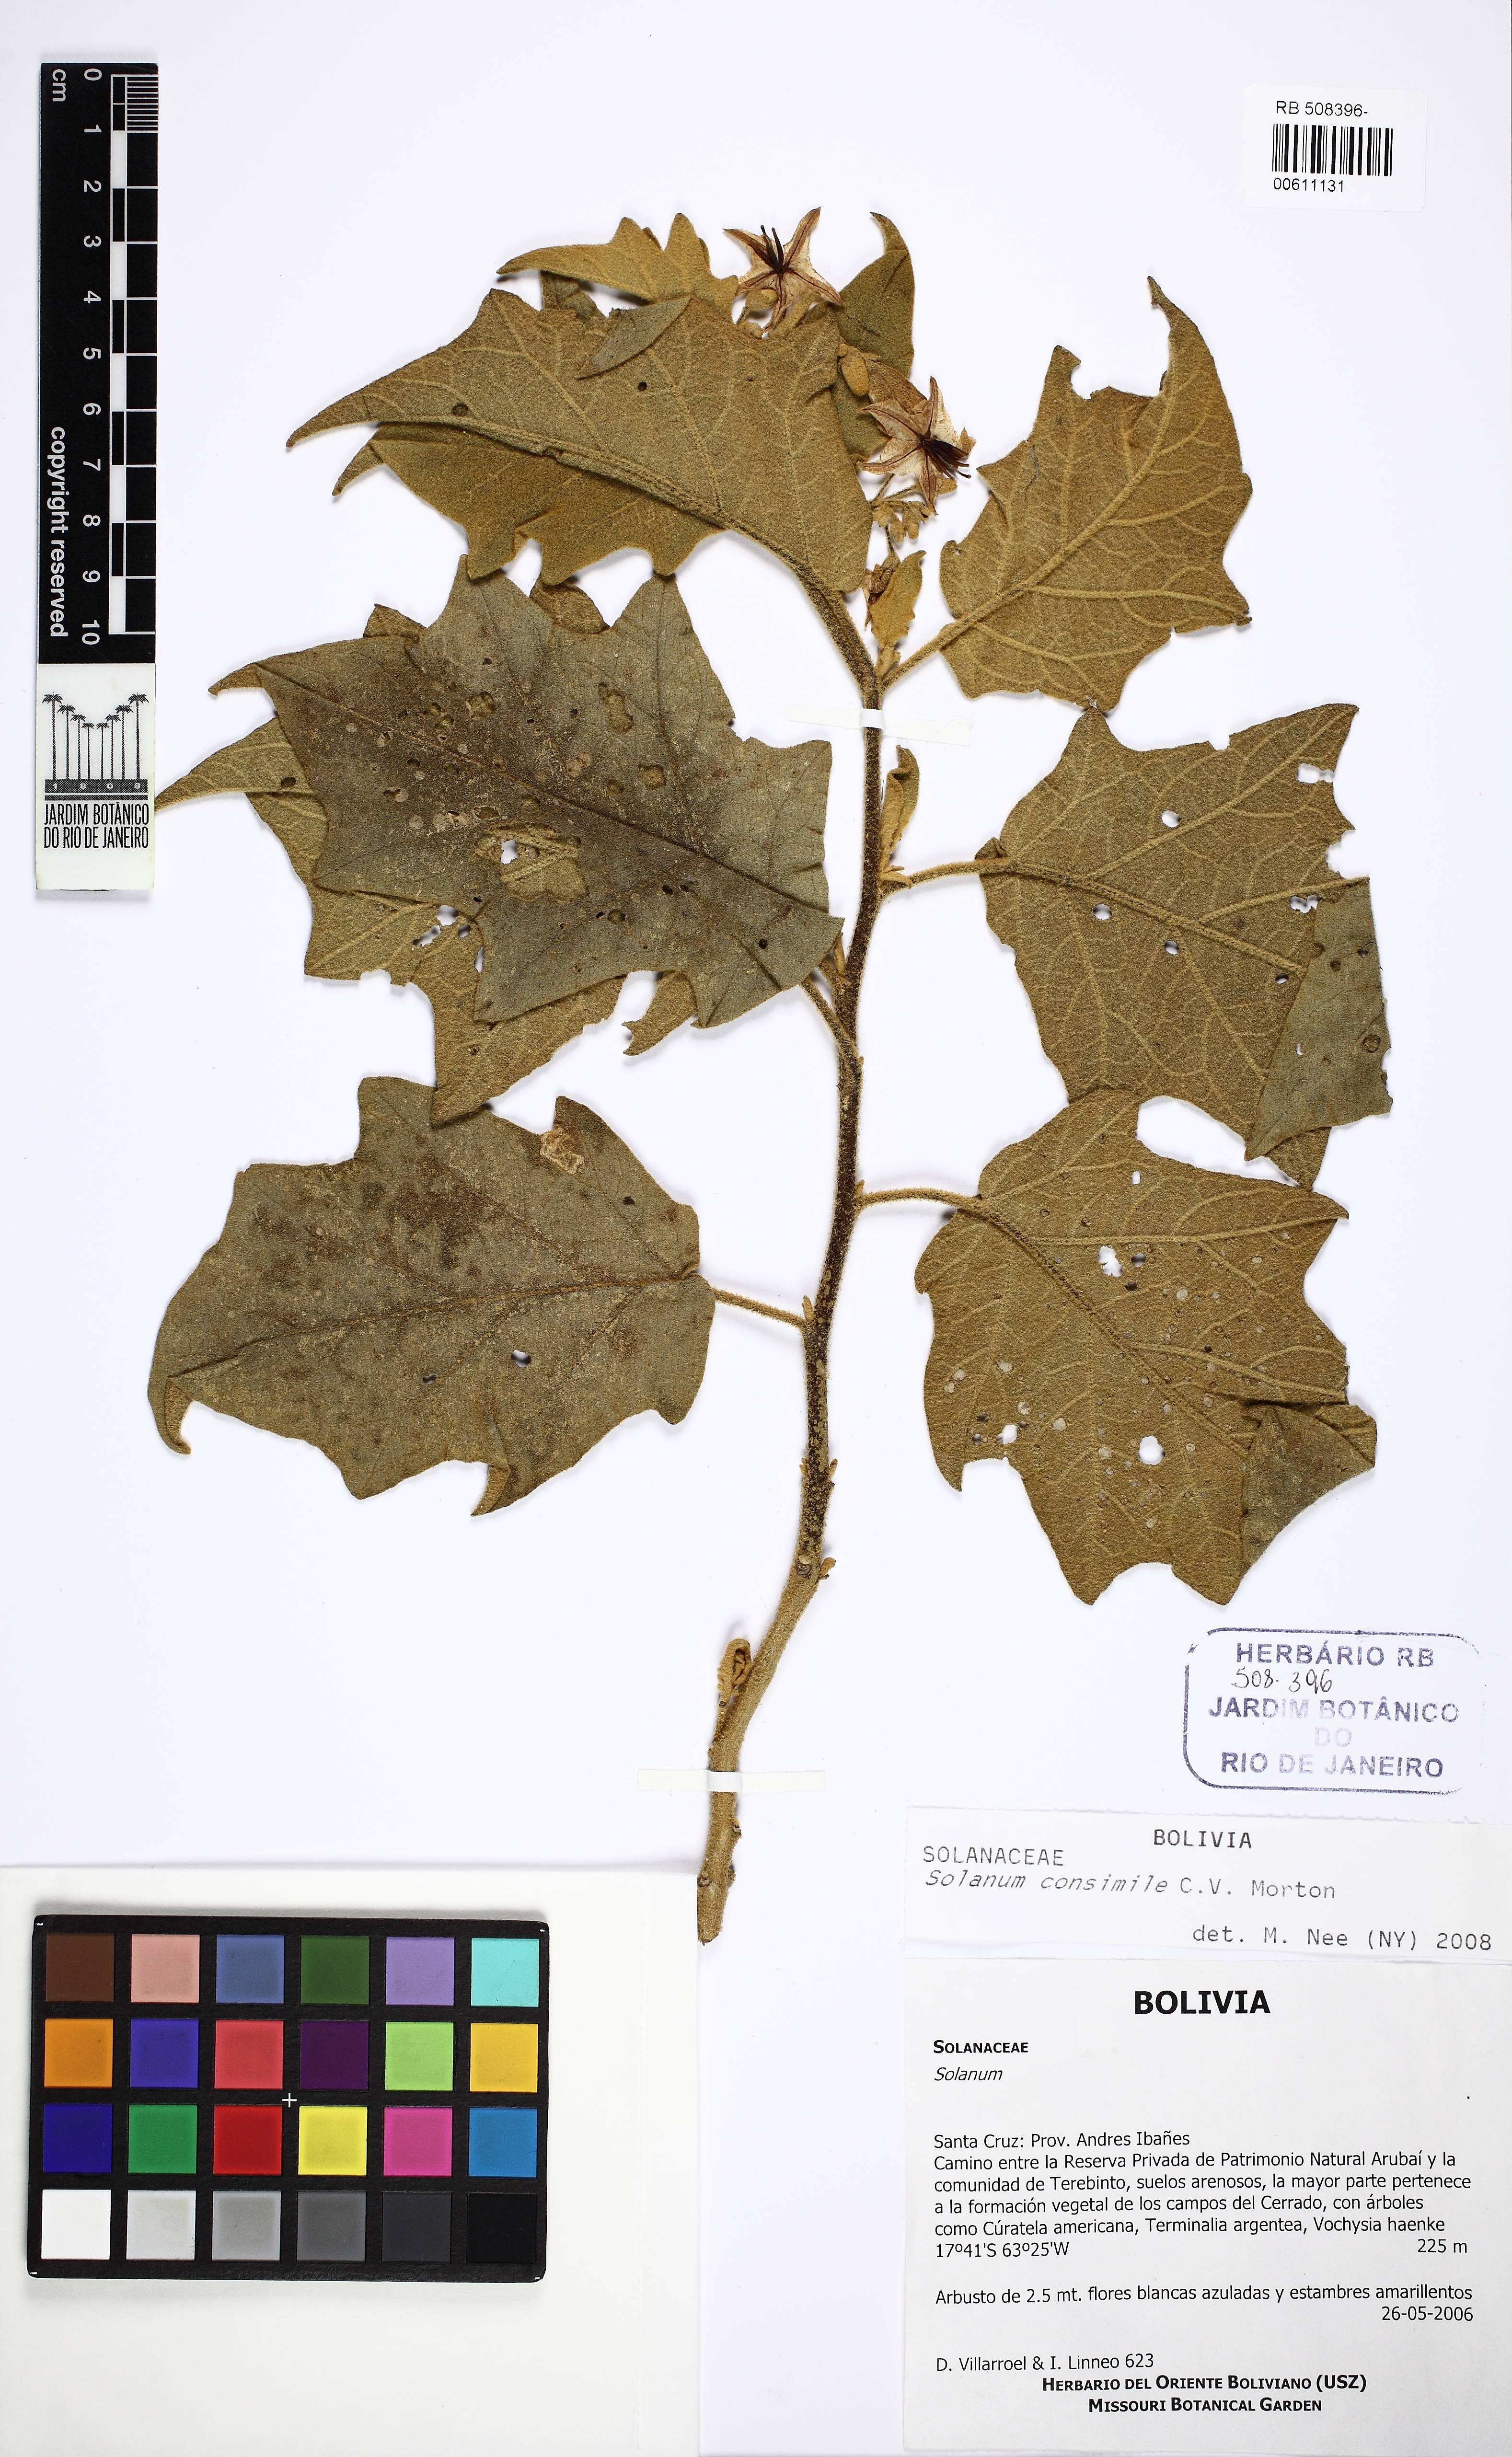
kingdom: Plantae
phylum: Tracheophyta
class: Magnoliopsida
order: Solanales
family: Solanaceae
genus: Solanum
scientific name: Solanum consimile
